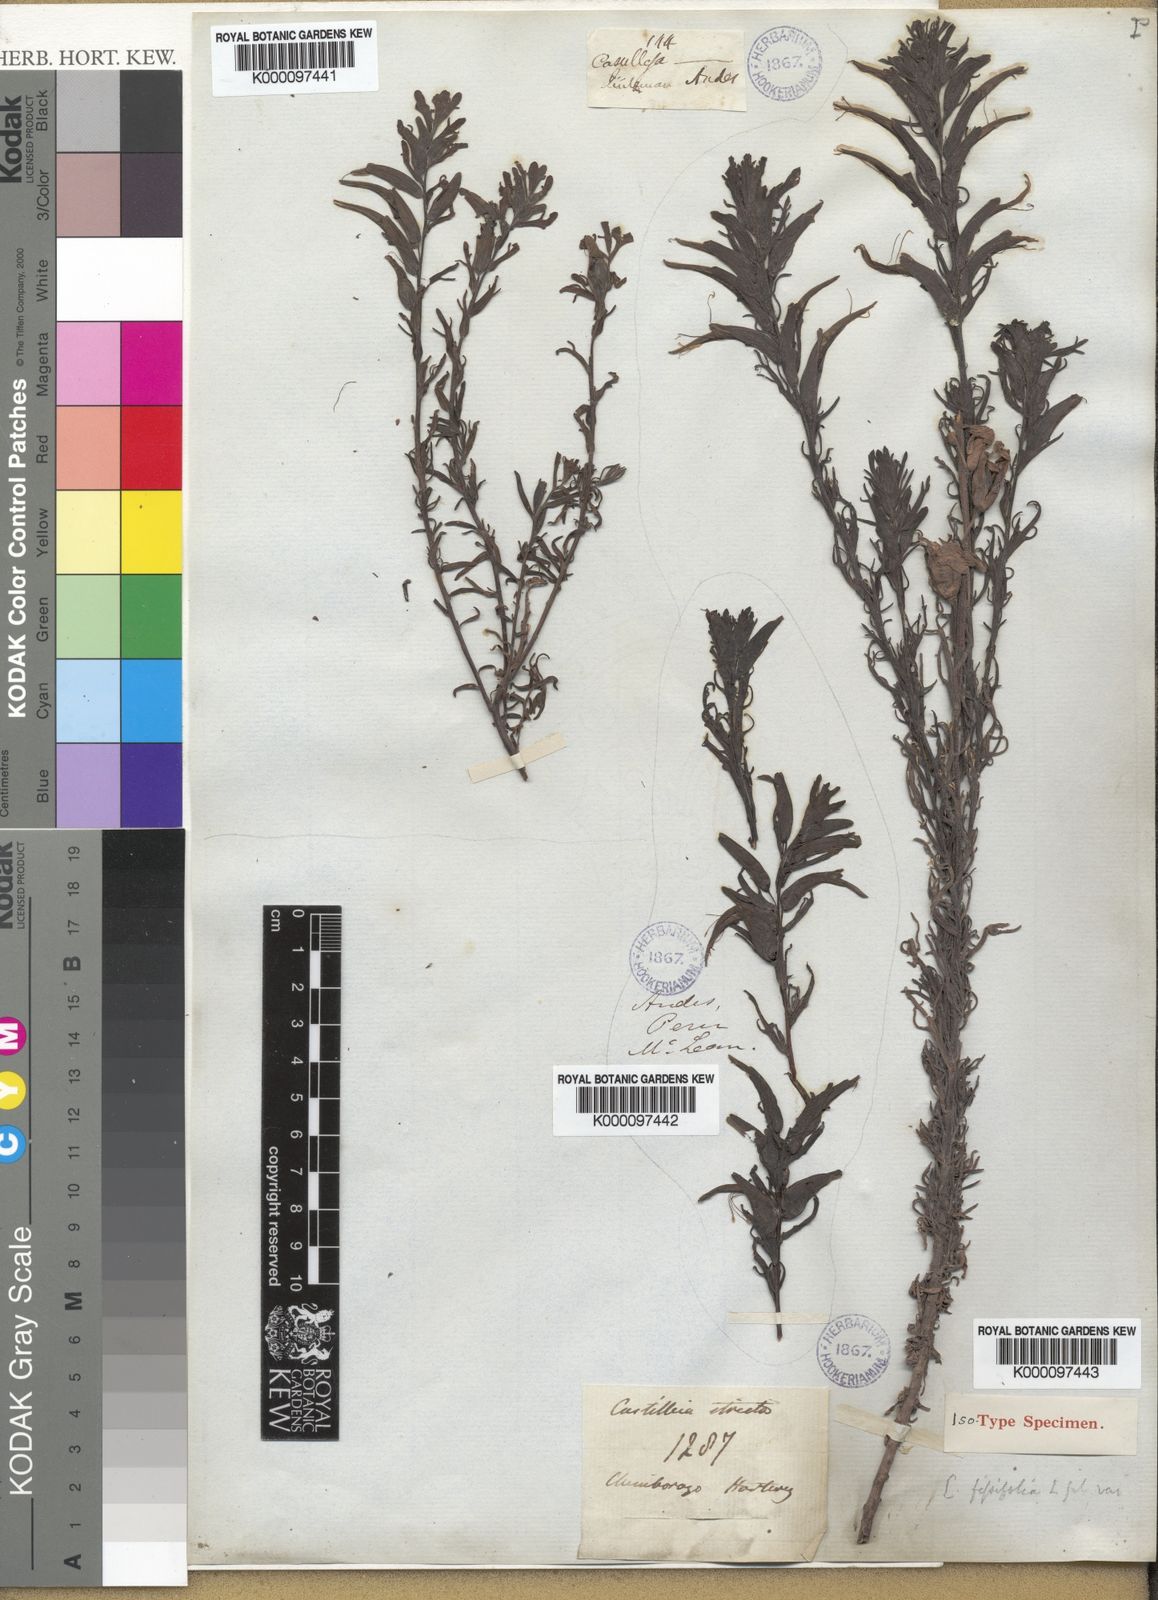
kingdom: Plantae
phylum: Tracheophyta
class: Magnoliopsida
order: Lamiales
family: Orobanchaceae
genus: Castilleja
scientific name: Castilleja fissifolia
